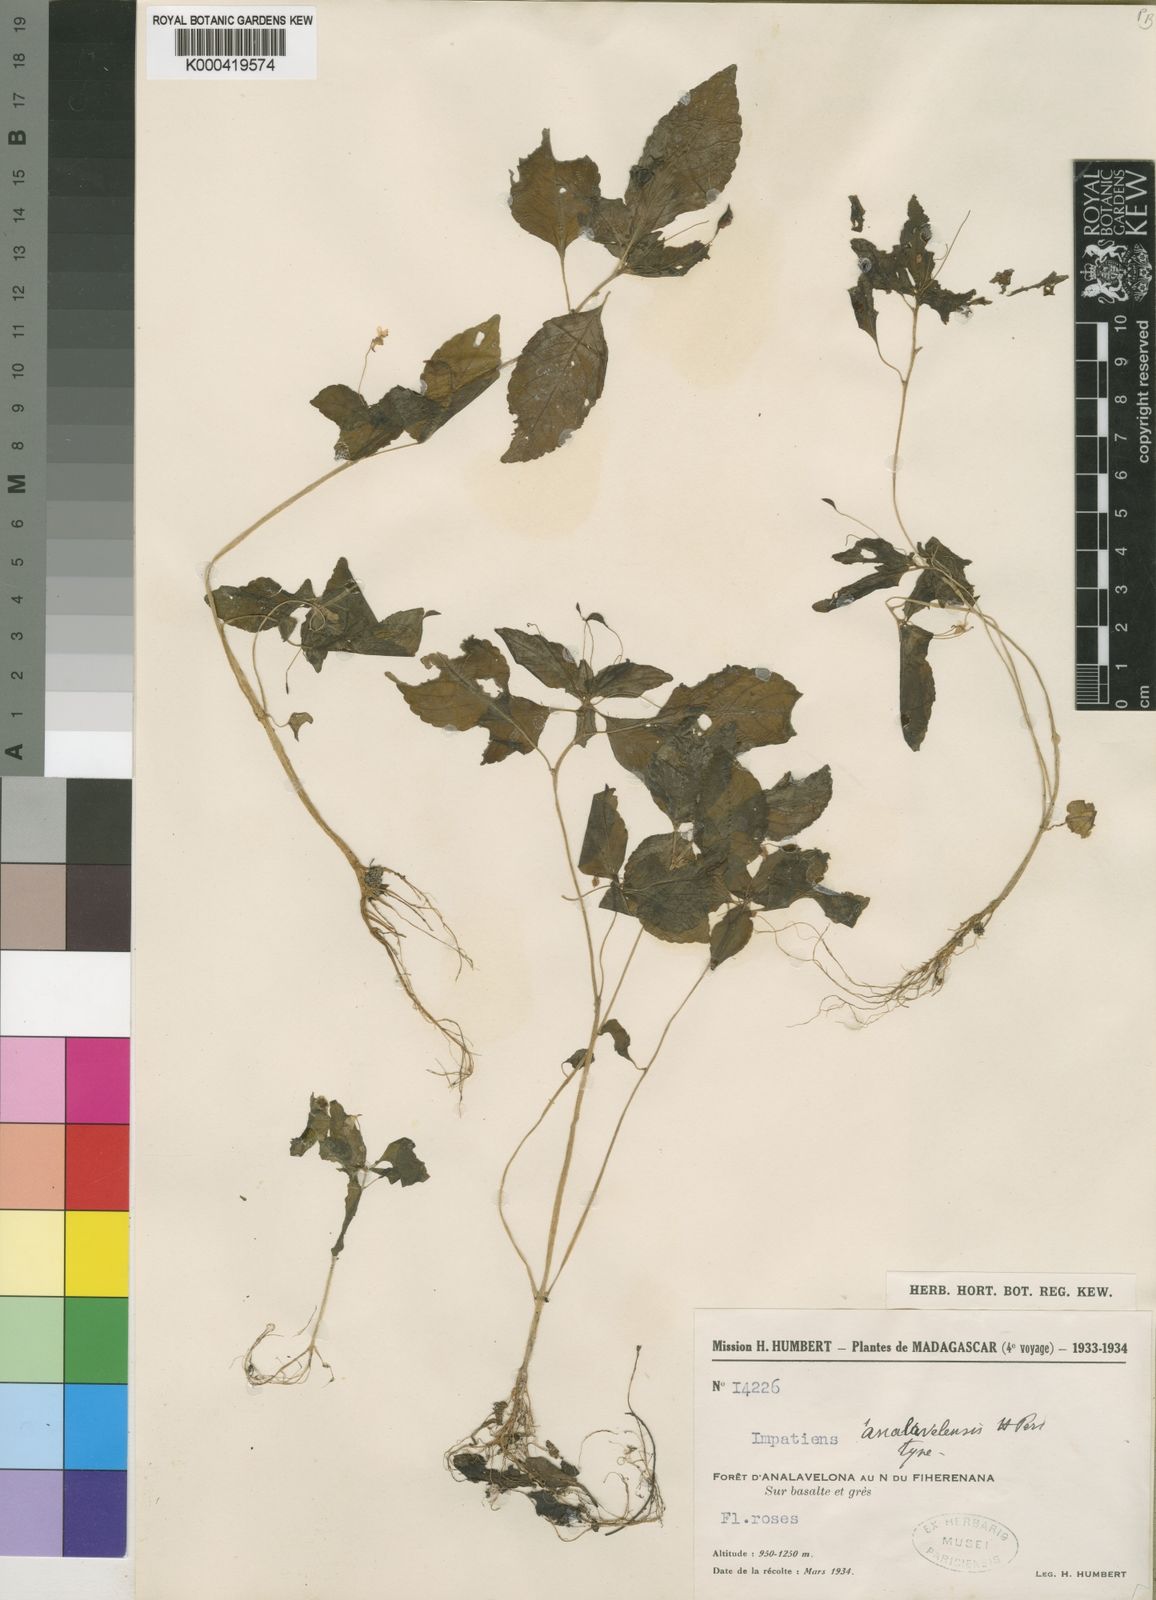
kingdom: Plantae
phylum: Tracheophyta
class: Magnoliopsida
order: Ericales
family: Balsaminaceae
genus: Impatiens
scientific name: Impatiens analavelensis
